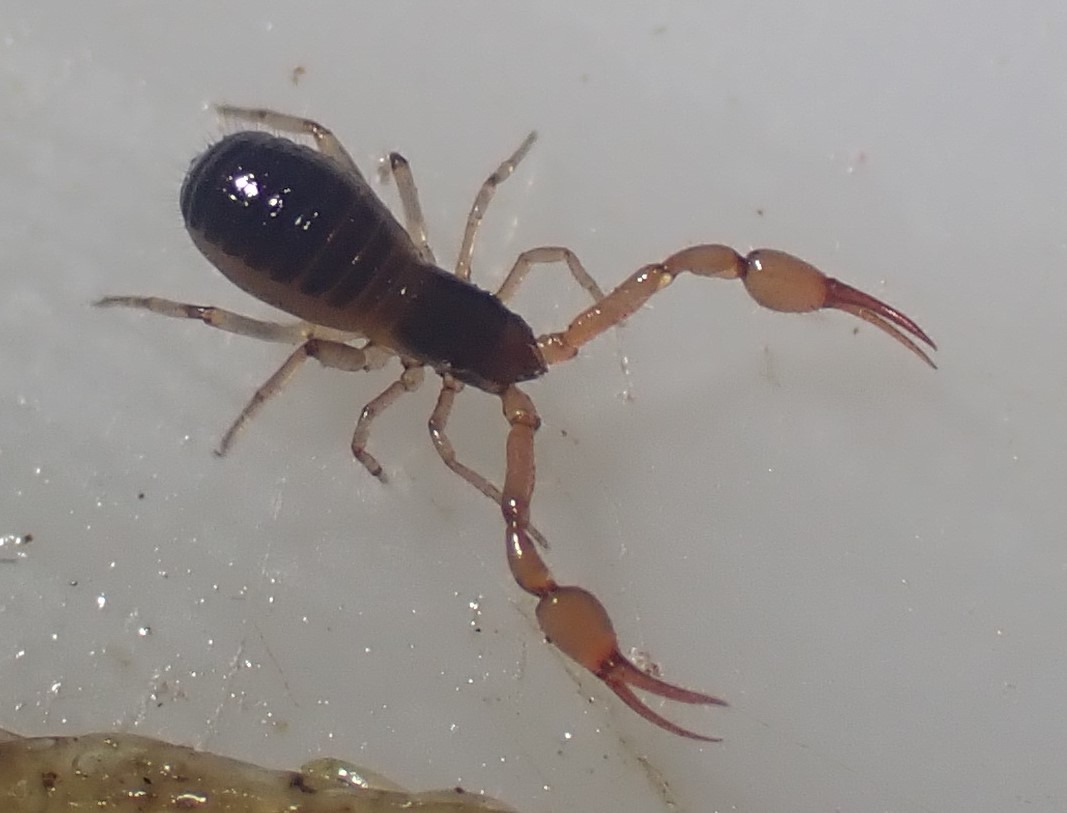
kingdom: Animalia
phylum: Arthropoda
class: Arachnida
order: Pseudoscorpiones
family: Neobisiidae
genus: Neobisium
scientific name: Neobisium carcinoides
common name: Almindelig mosskorpion
